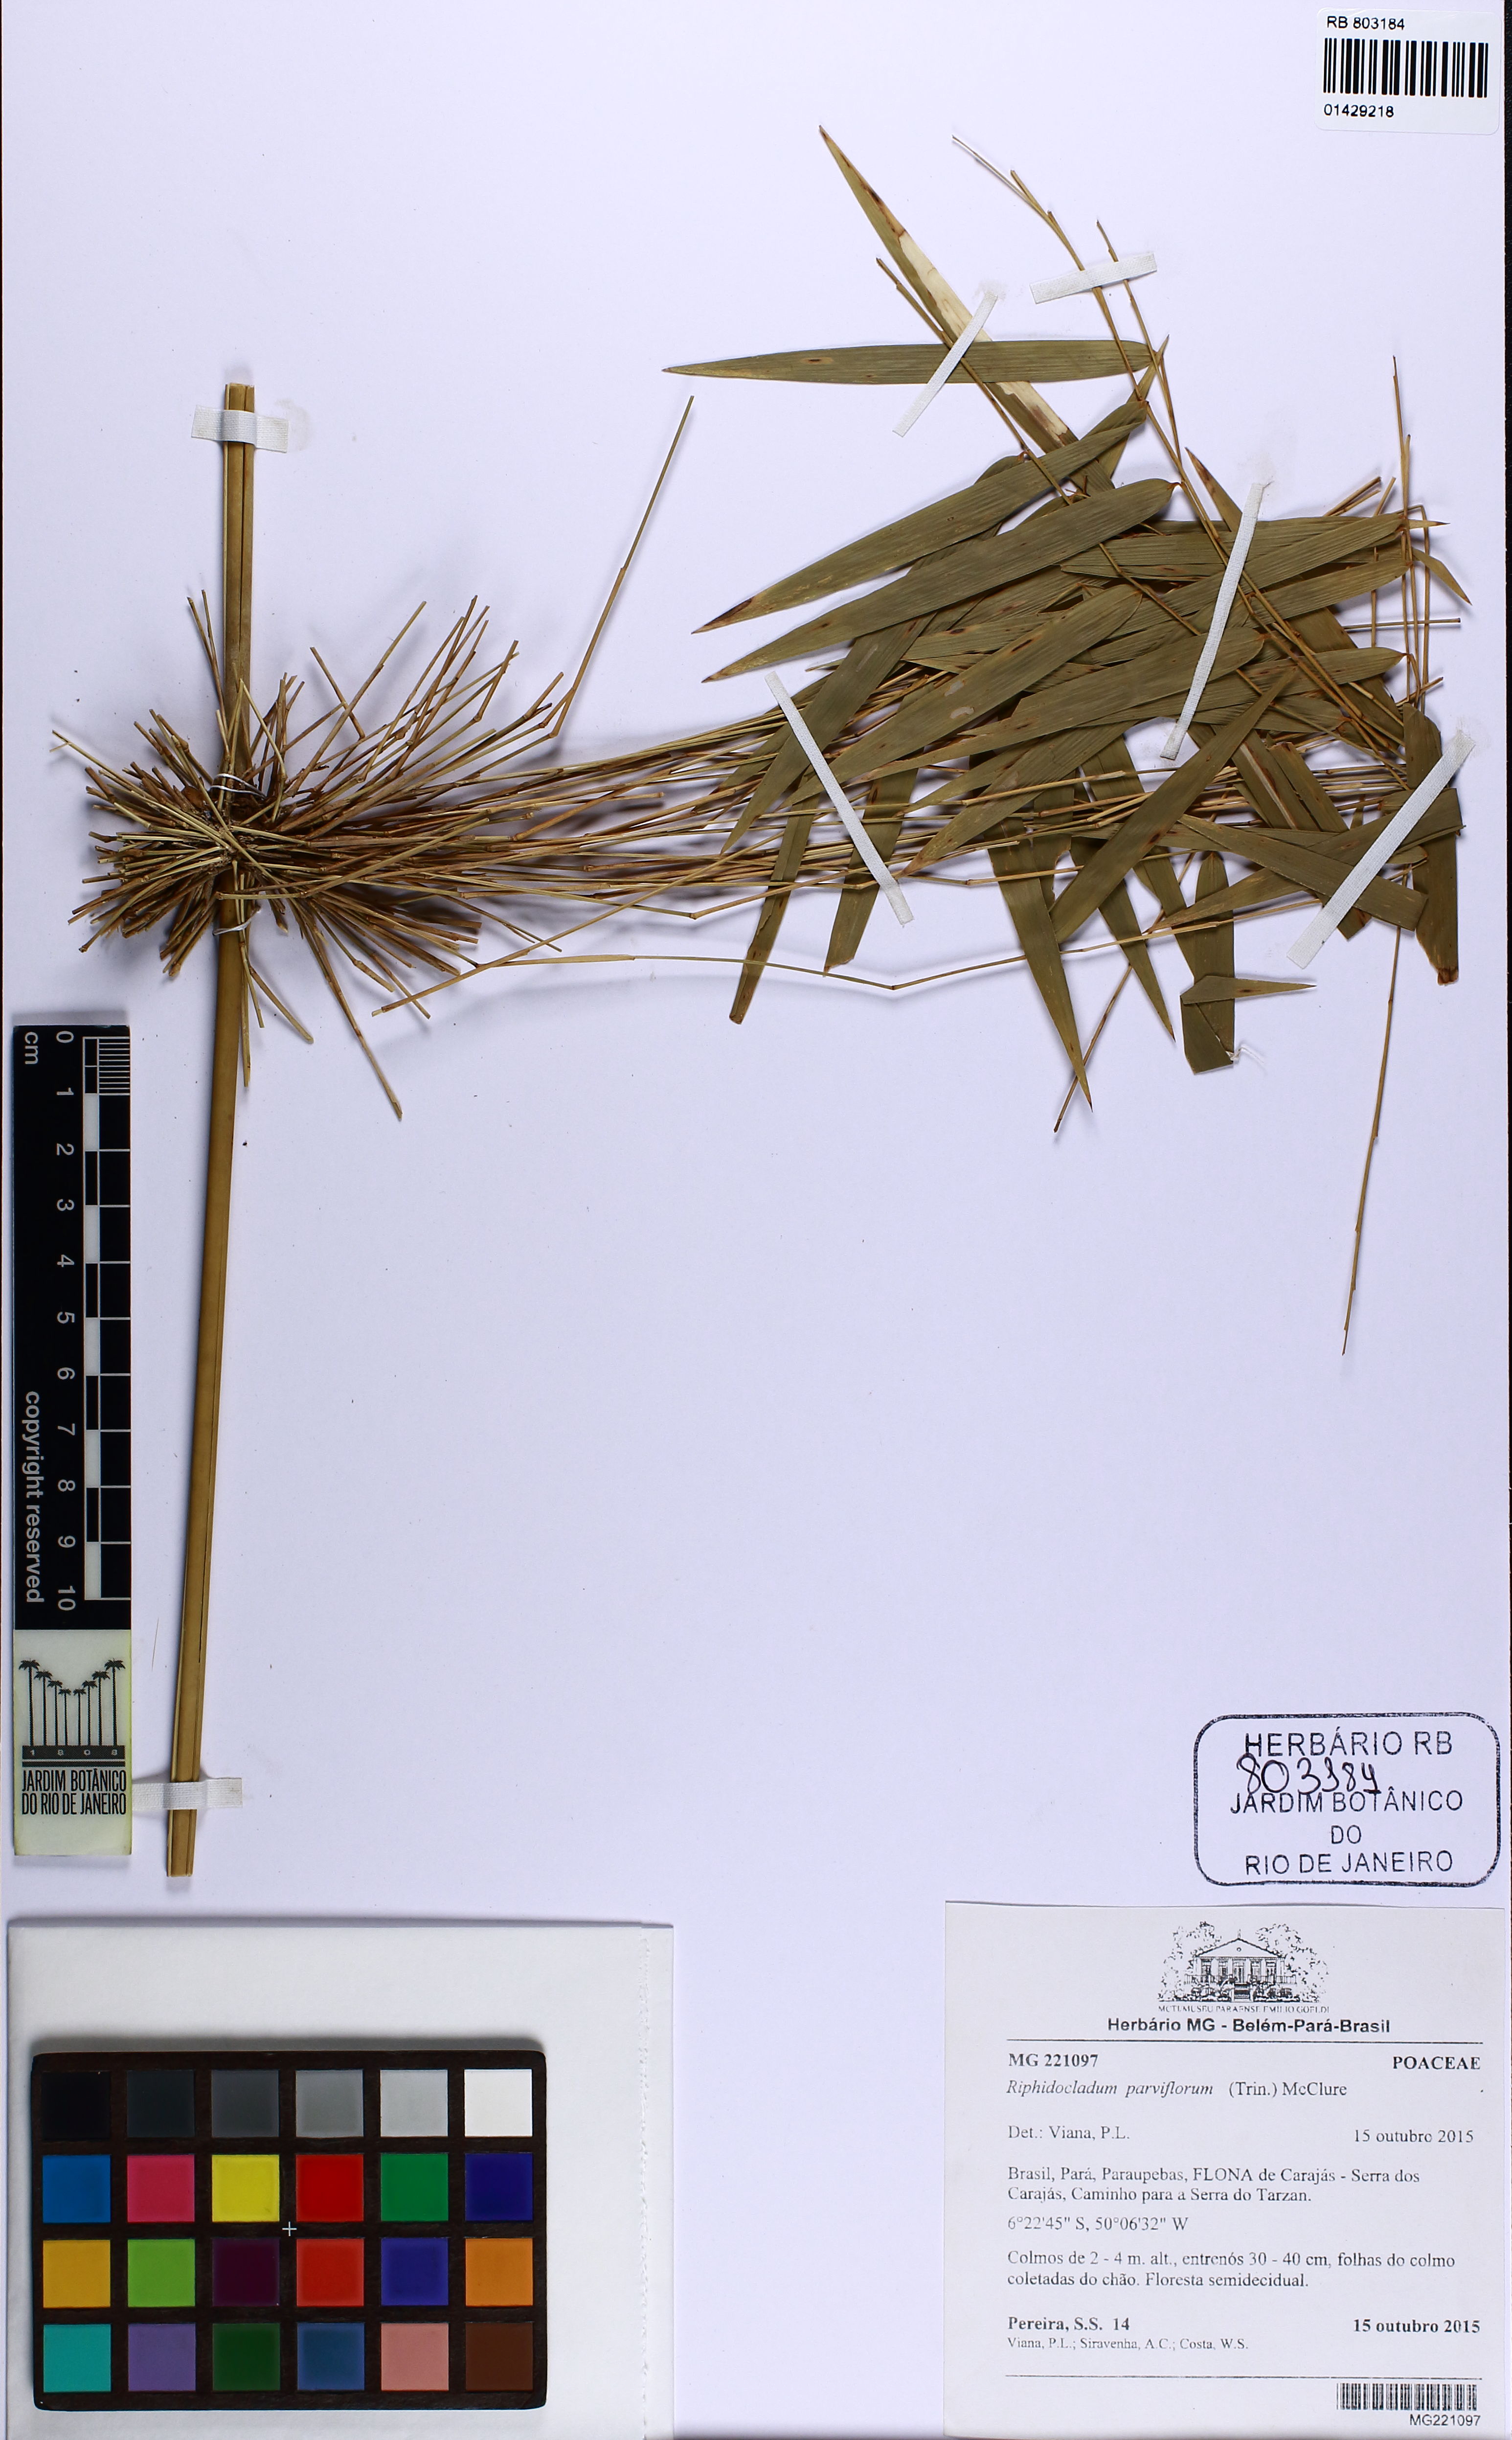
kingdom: Plantae
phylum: Tracheophyta
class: Liliopsida
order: Poales
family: Poaceae
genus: Rhipidocladum
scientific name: Rhipidocladum parviflorum
